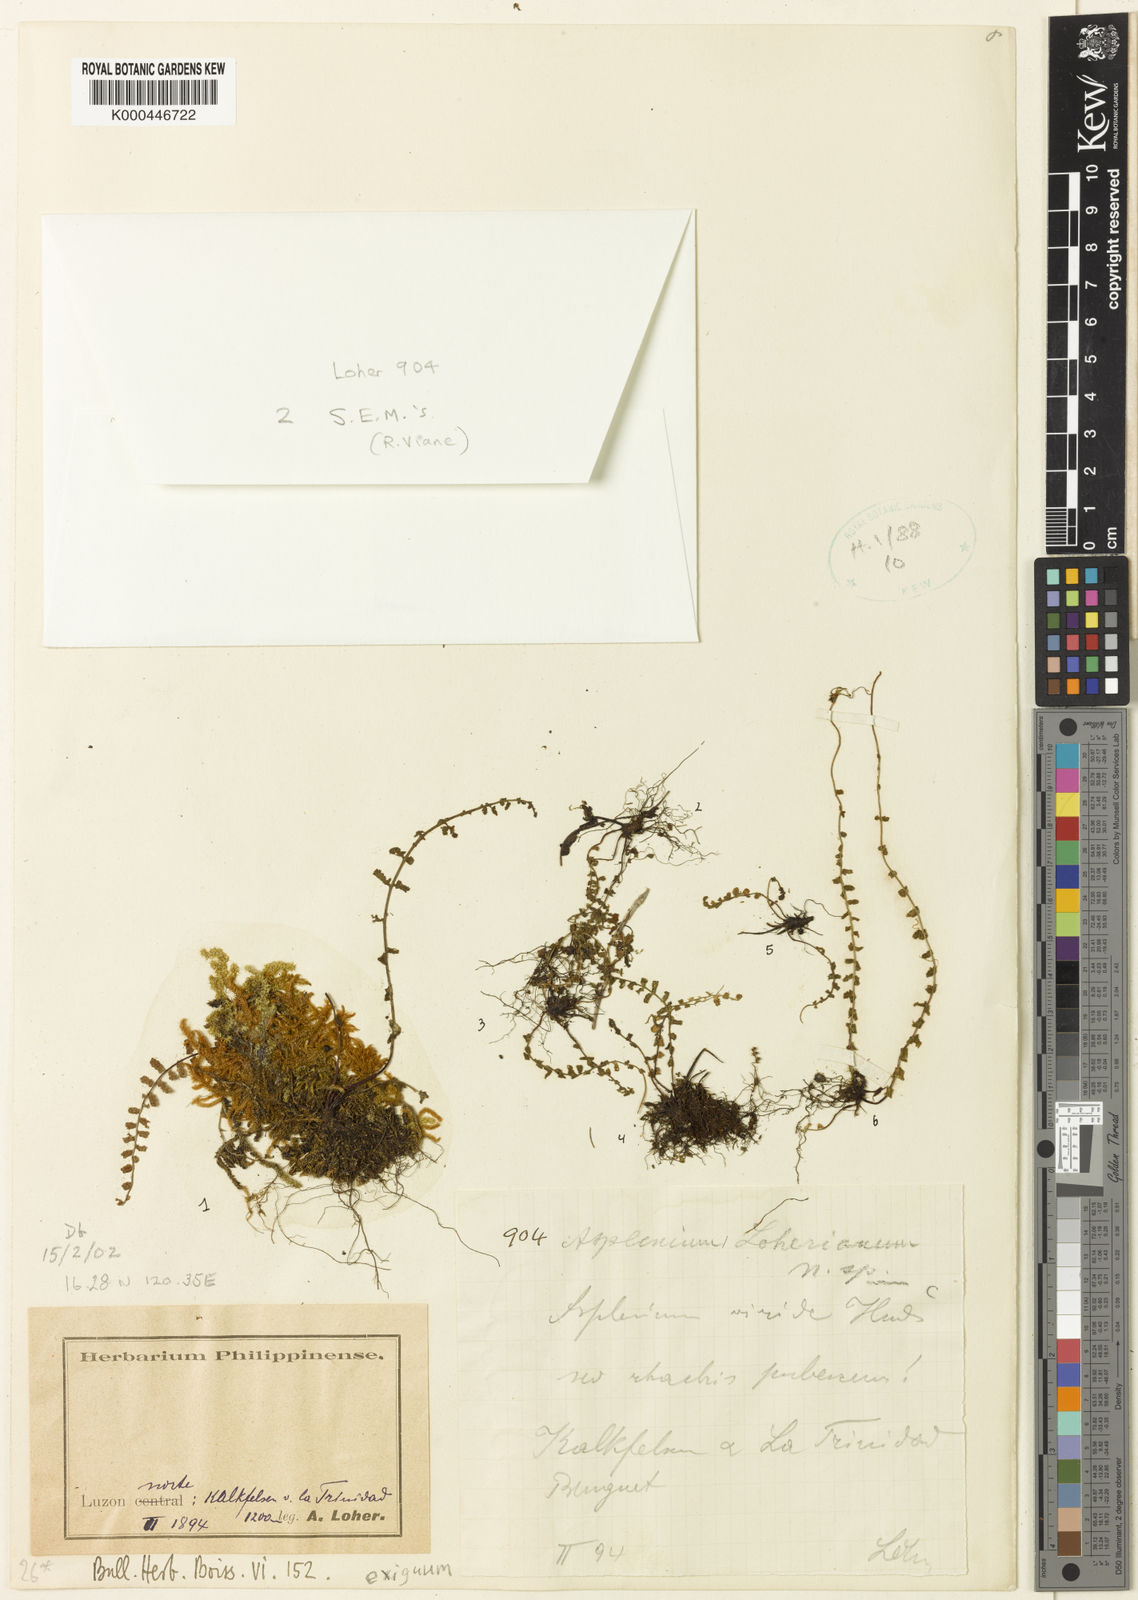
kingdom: Plantae
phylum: Tracheophyta
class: Polypodiopsida
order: Polypodiales
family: Aspleniaceae
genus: Asplenium
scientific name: Asplenium exiguum
